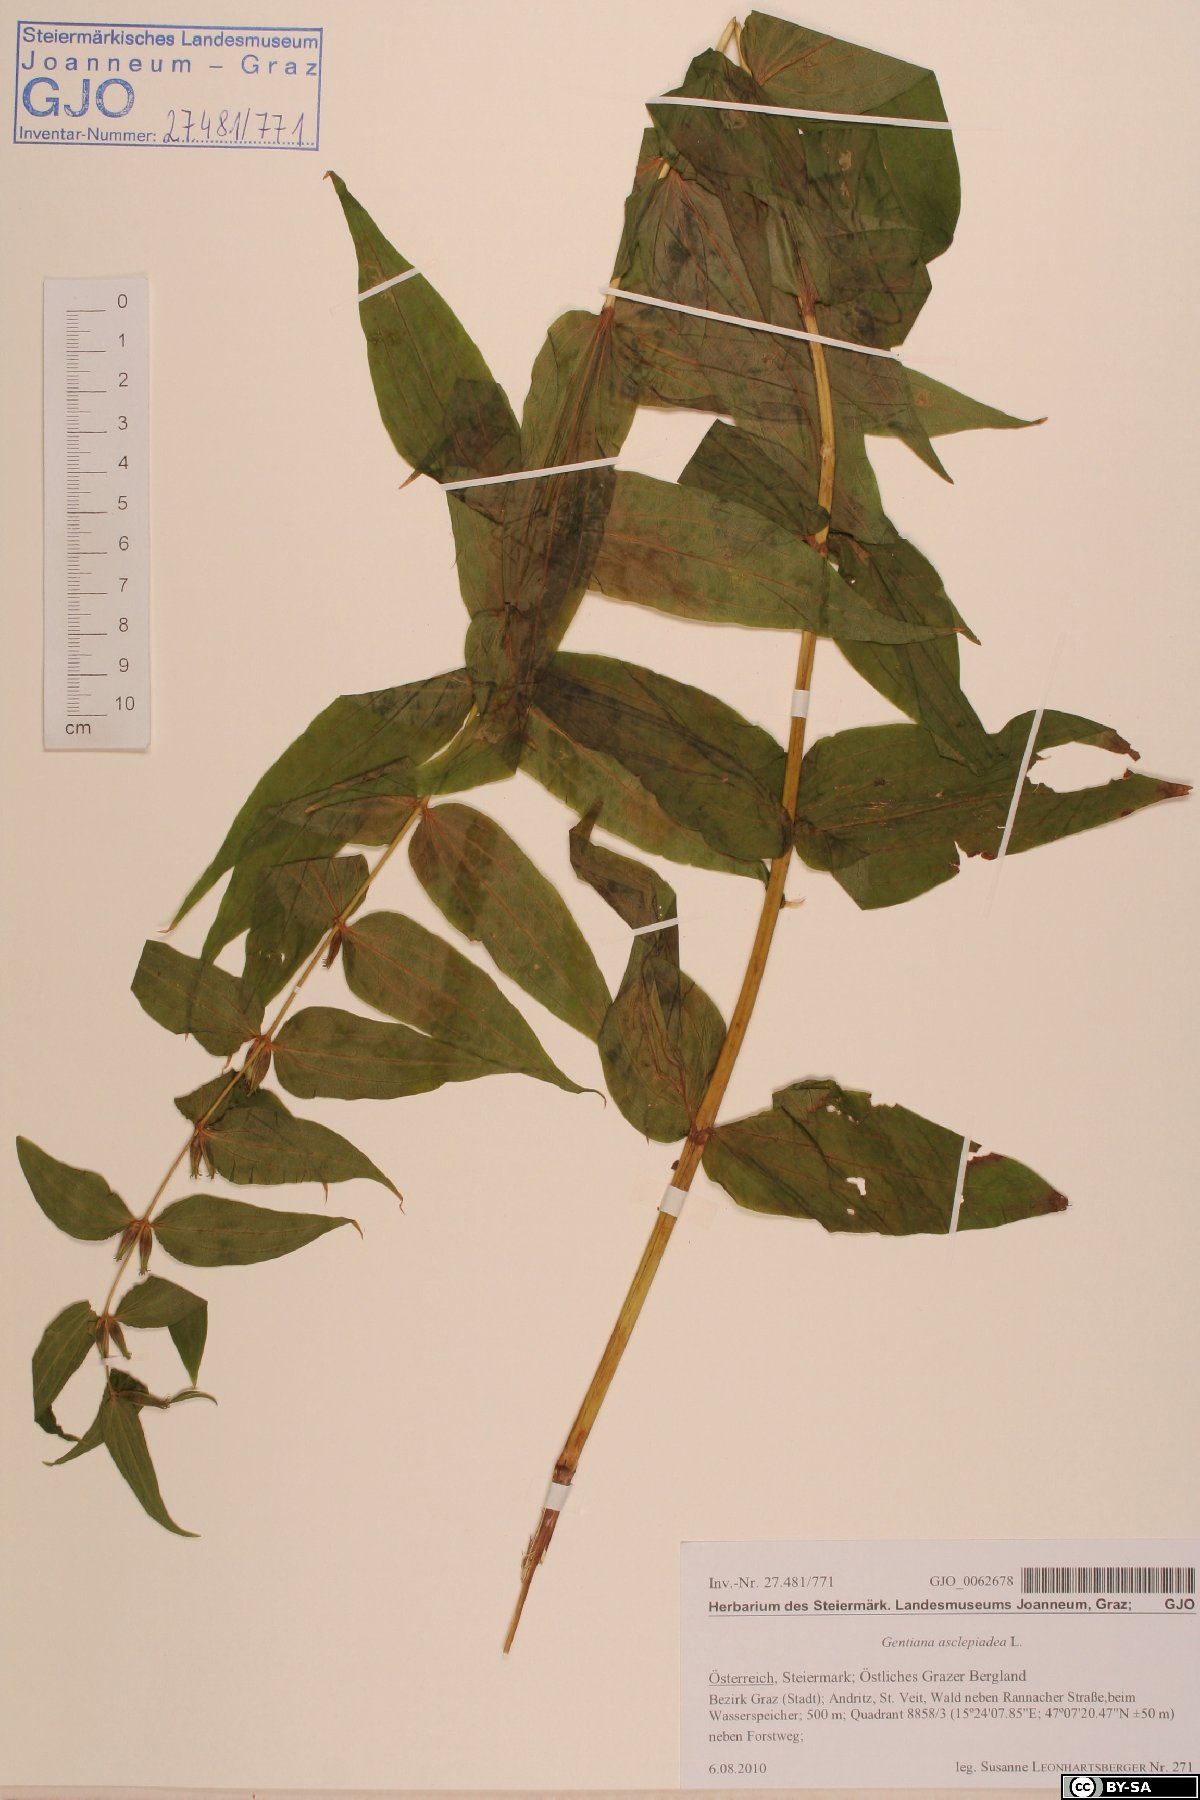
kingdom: Plantae
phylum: Tracheophyta
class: Magnoliopsida
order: Gentianales
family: Gentianaceae
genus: Gentiana
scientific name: Gentiana asclepiadea
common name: Willow gentian
